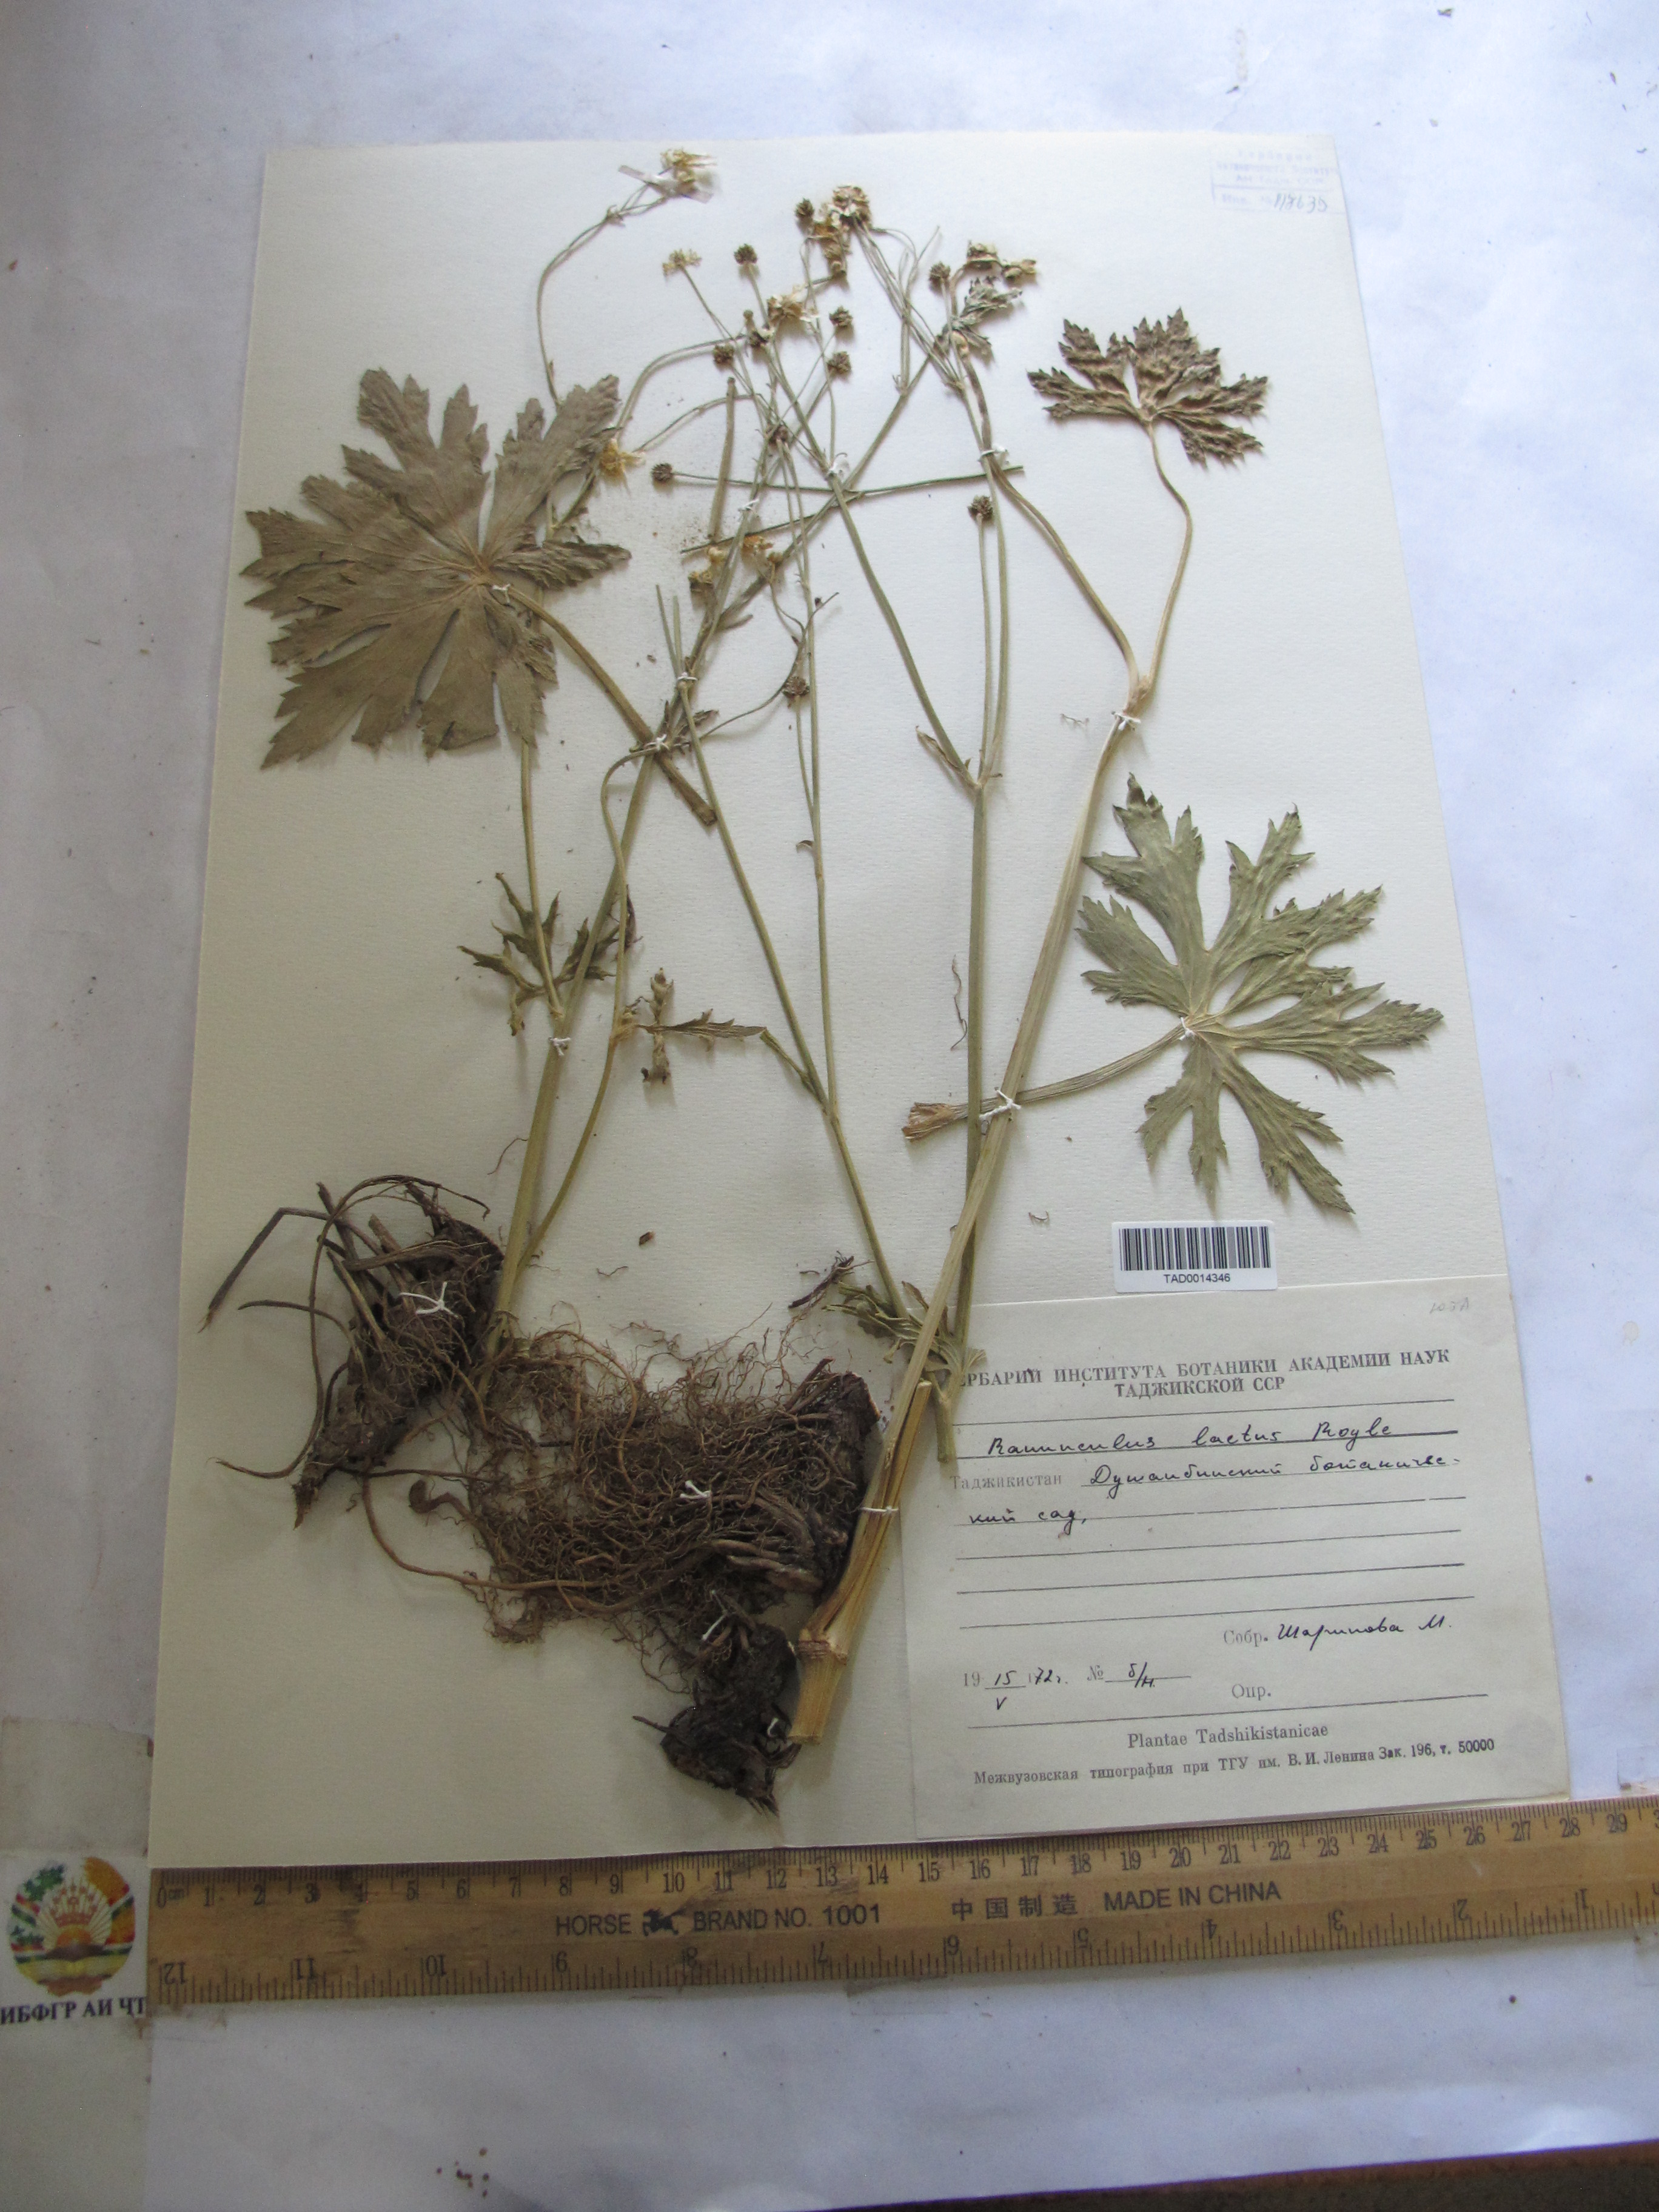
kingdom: Plantae
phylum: Tracheophyta
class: Magnoliopsida
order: Ranunculales
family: Ranunculaceae
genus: Ranunculus
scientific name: Ranunculus distans
